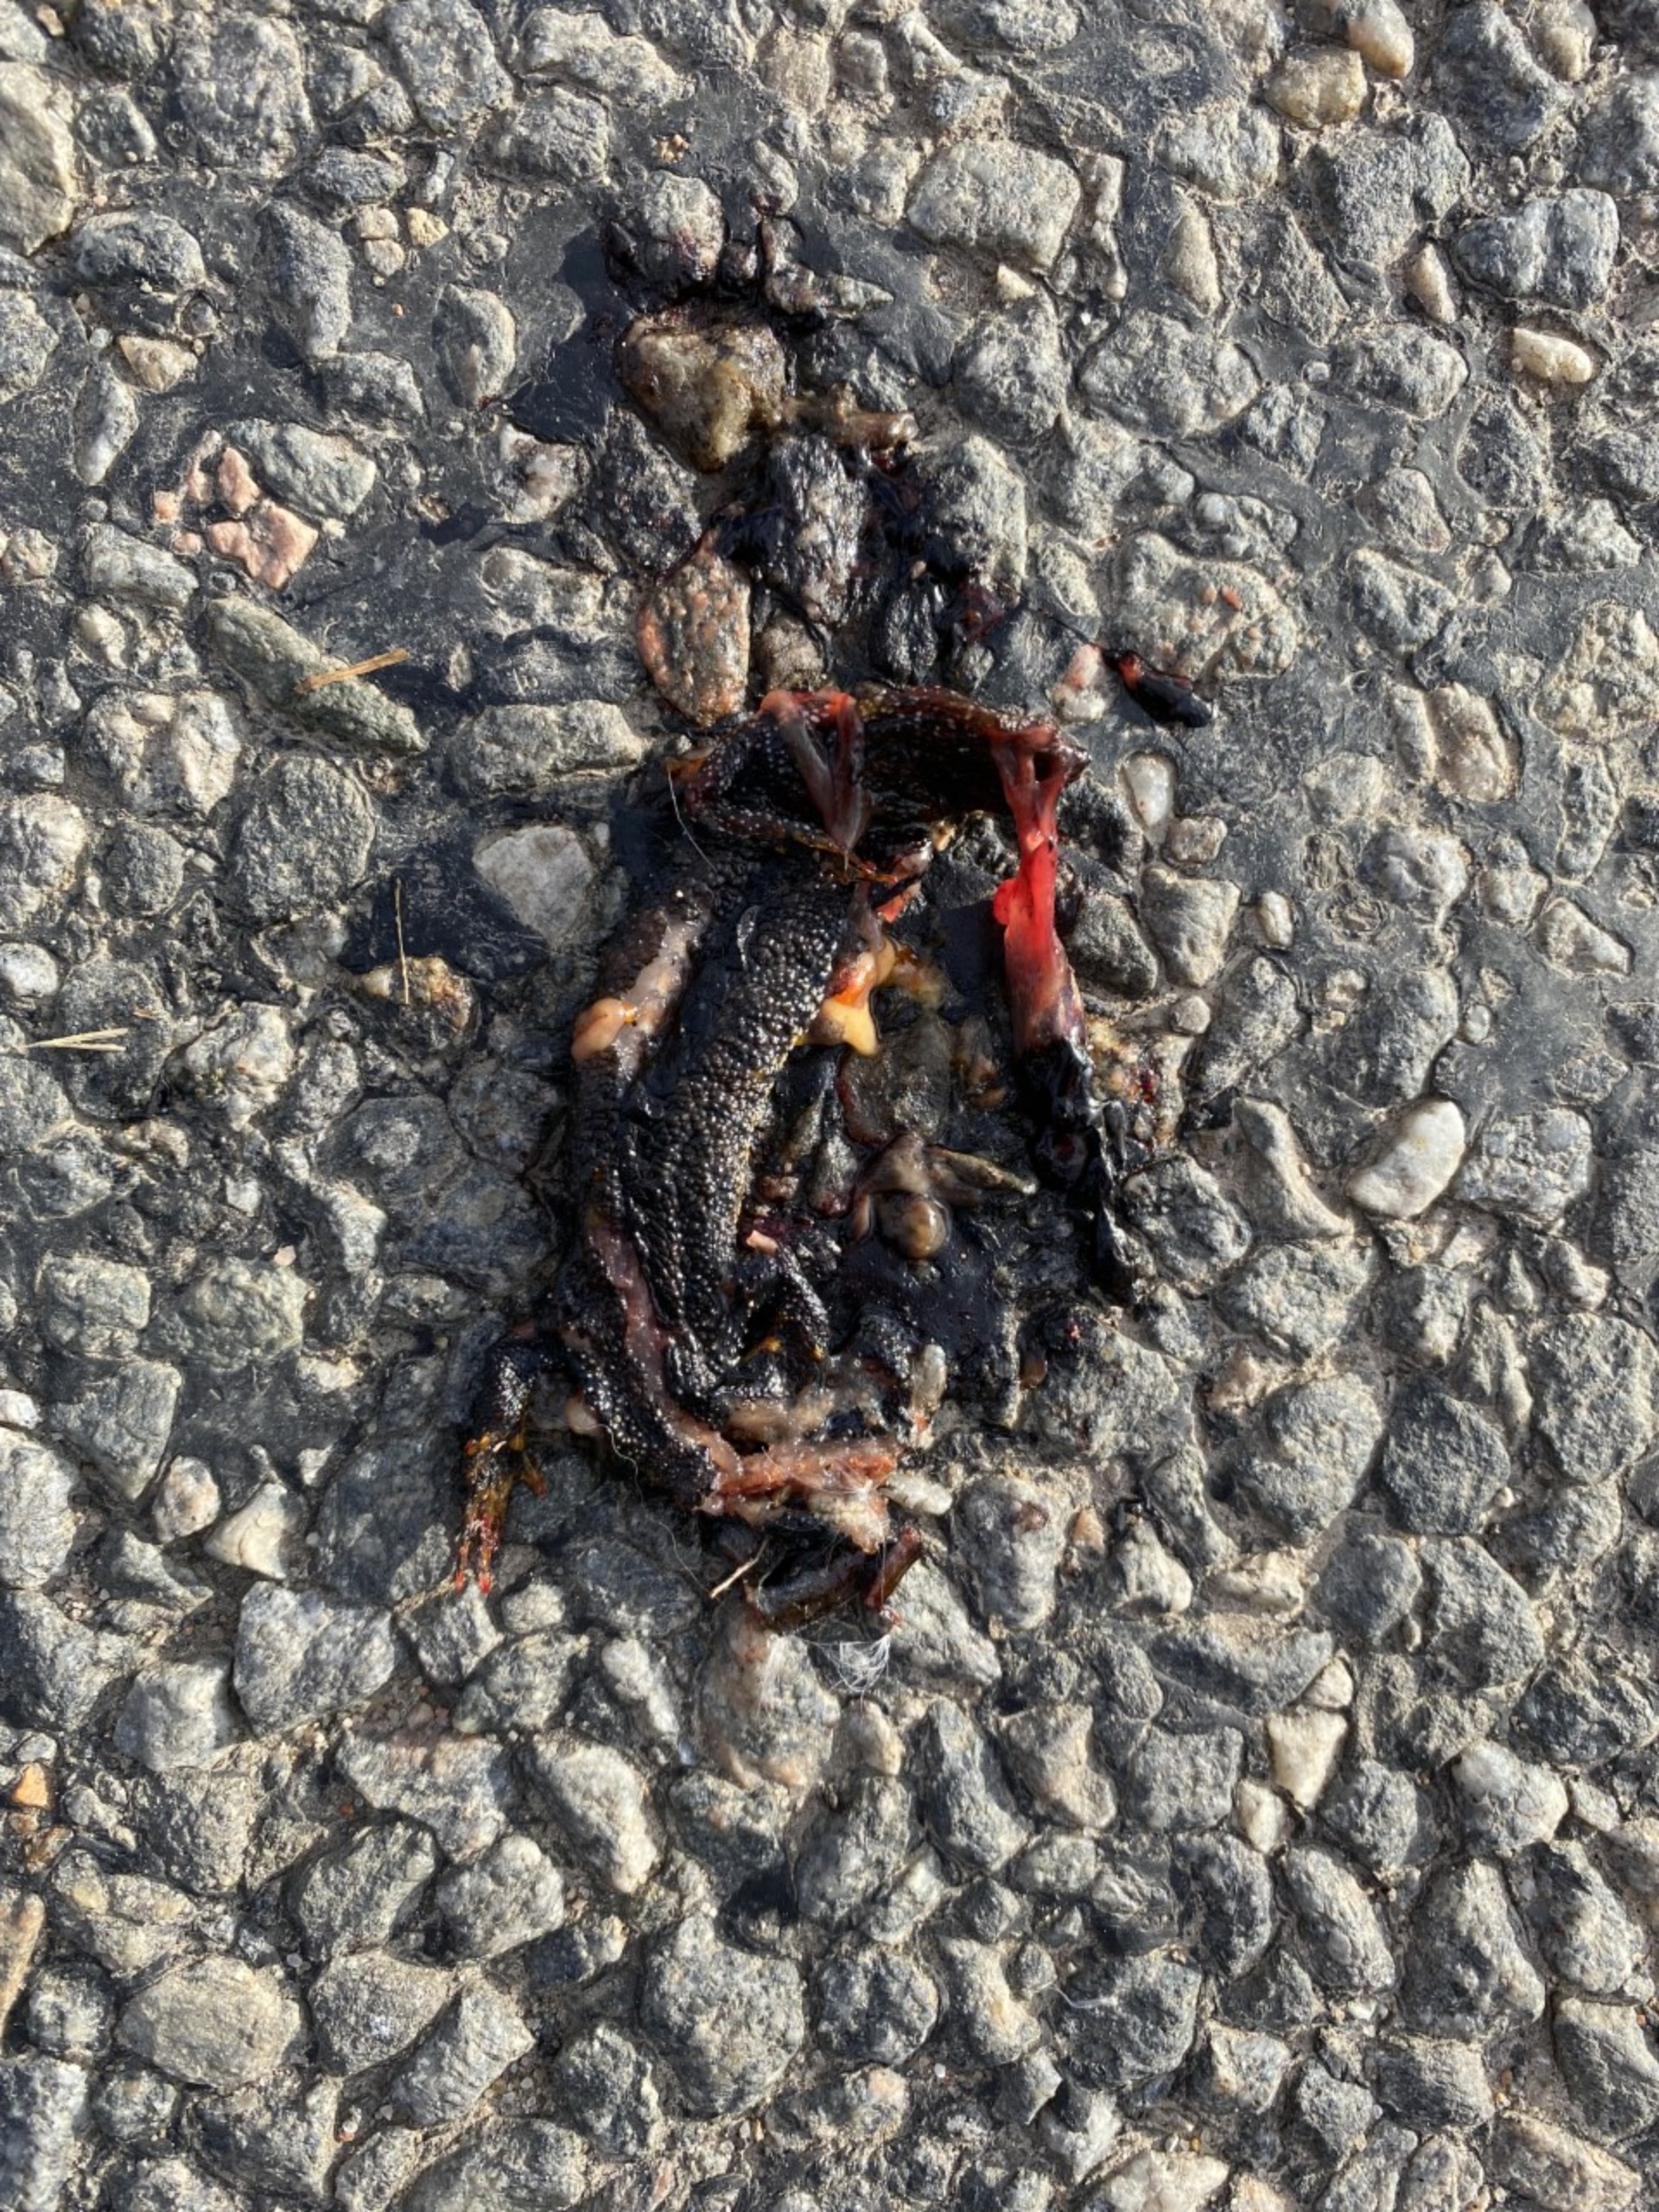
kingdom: Animalia
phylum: Chordata
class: Amphibia
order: Caudata
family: Salamandridae
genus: Triturus
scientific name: Triturus cristatus
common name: Stor vandsalamander
